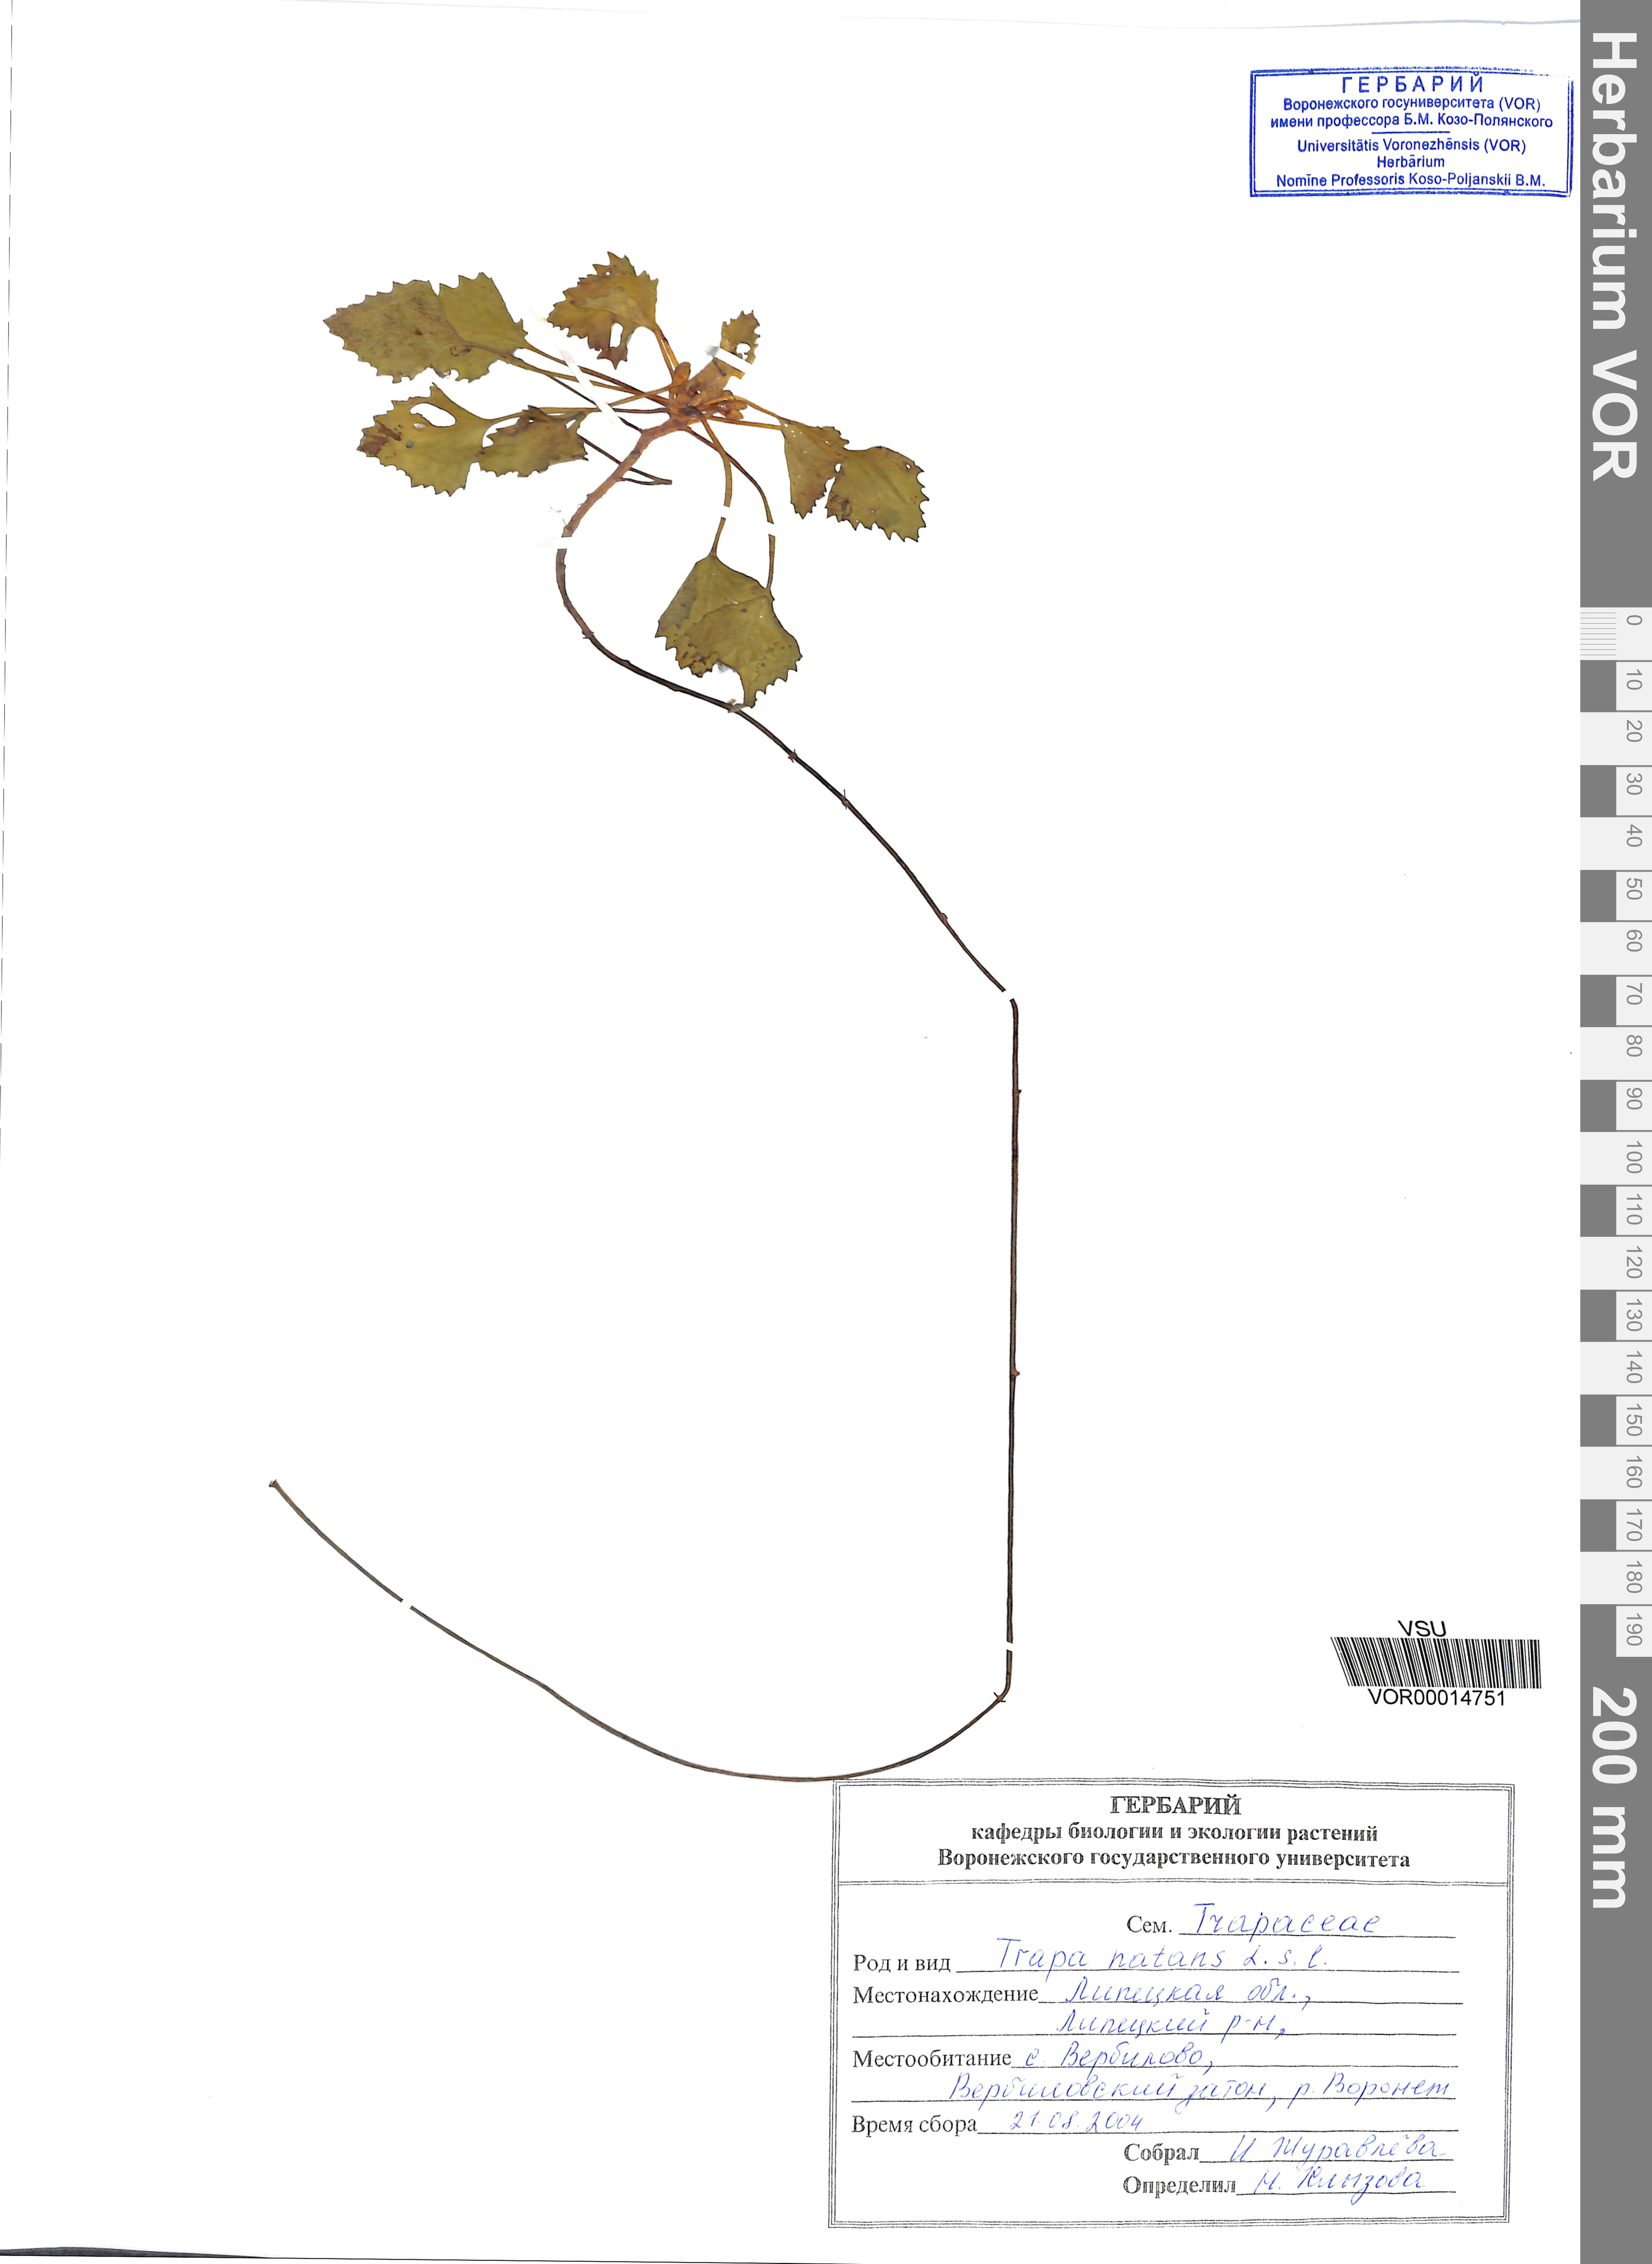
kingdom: Plantae
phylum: Tracheophyta
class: Magnoliopsida
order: Myrtales
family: Lythraceae
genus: Trapa
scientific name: Trapa natans
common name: Water chestnut
